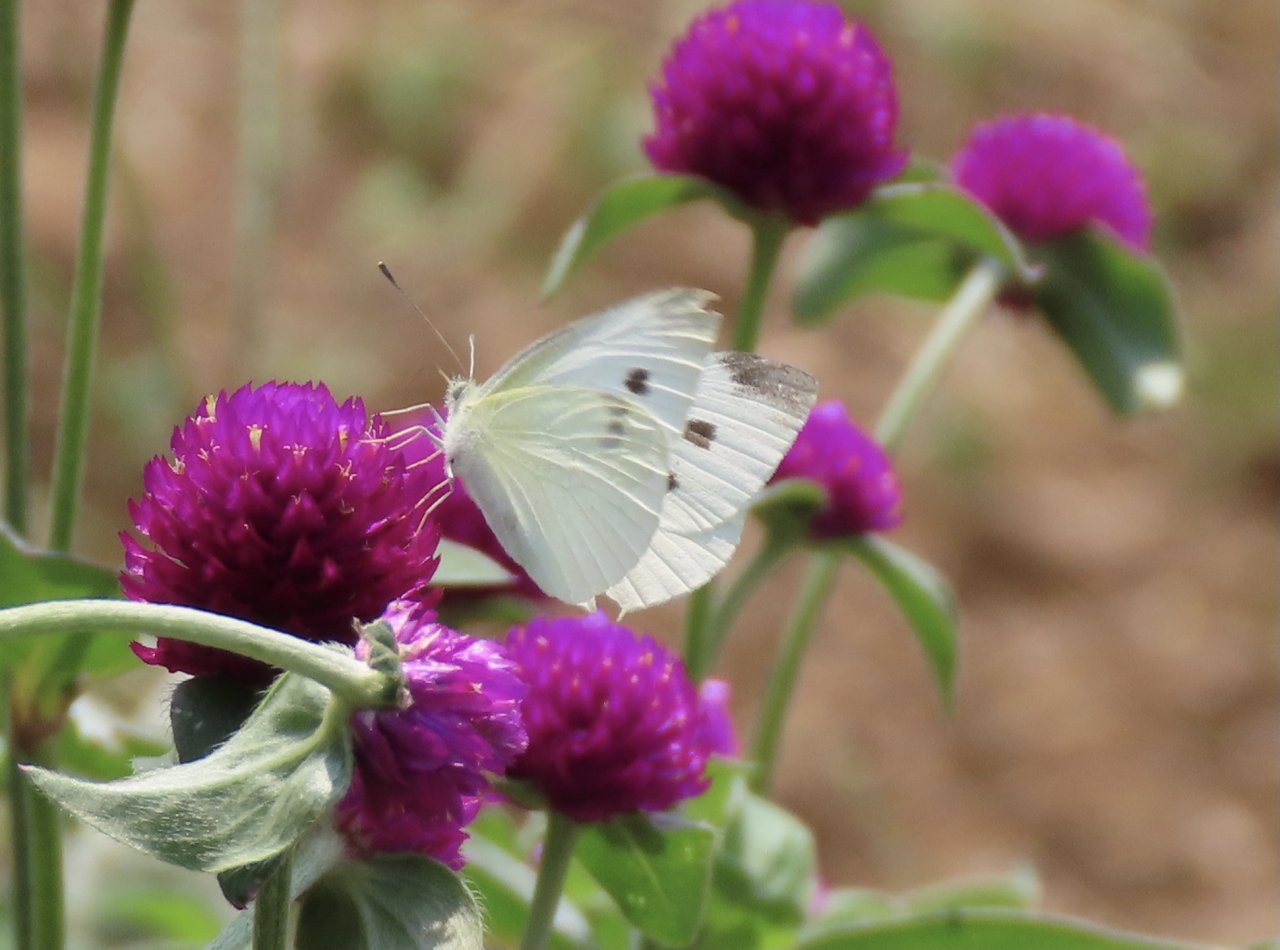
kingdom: Animalia
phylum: Arthropoda
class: Insecta
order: Lepidoptera
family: Pieridae
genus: Pieris
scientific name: Pieris rapae
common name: Cabbage White
